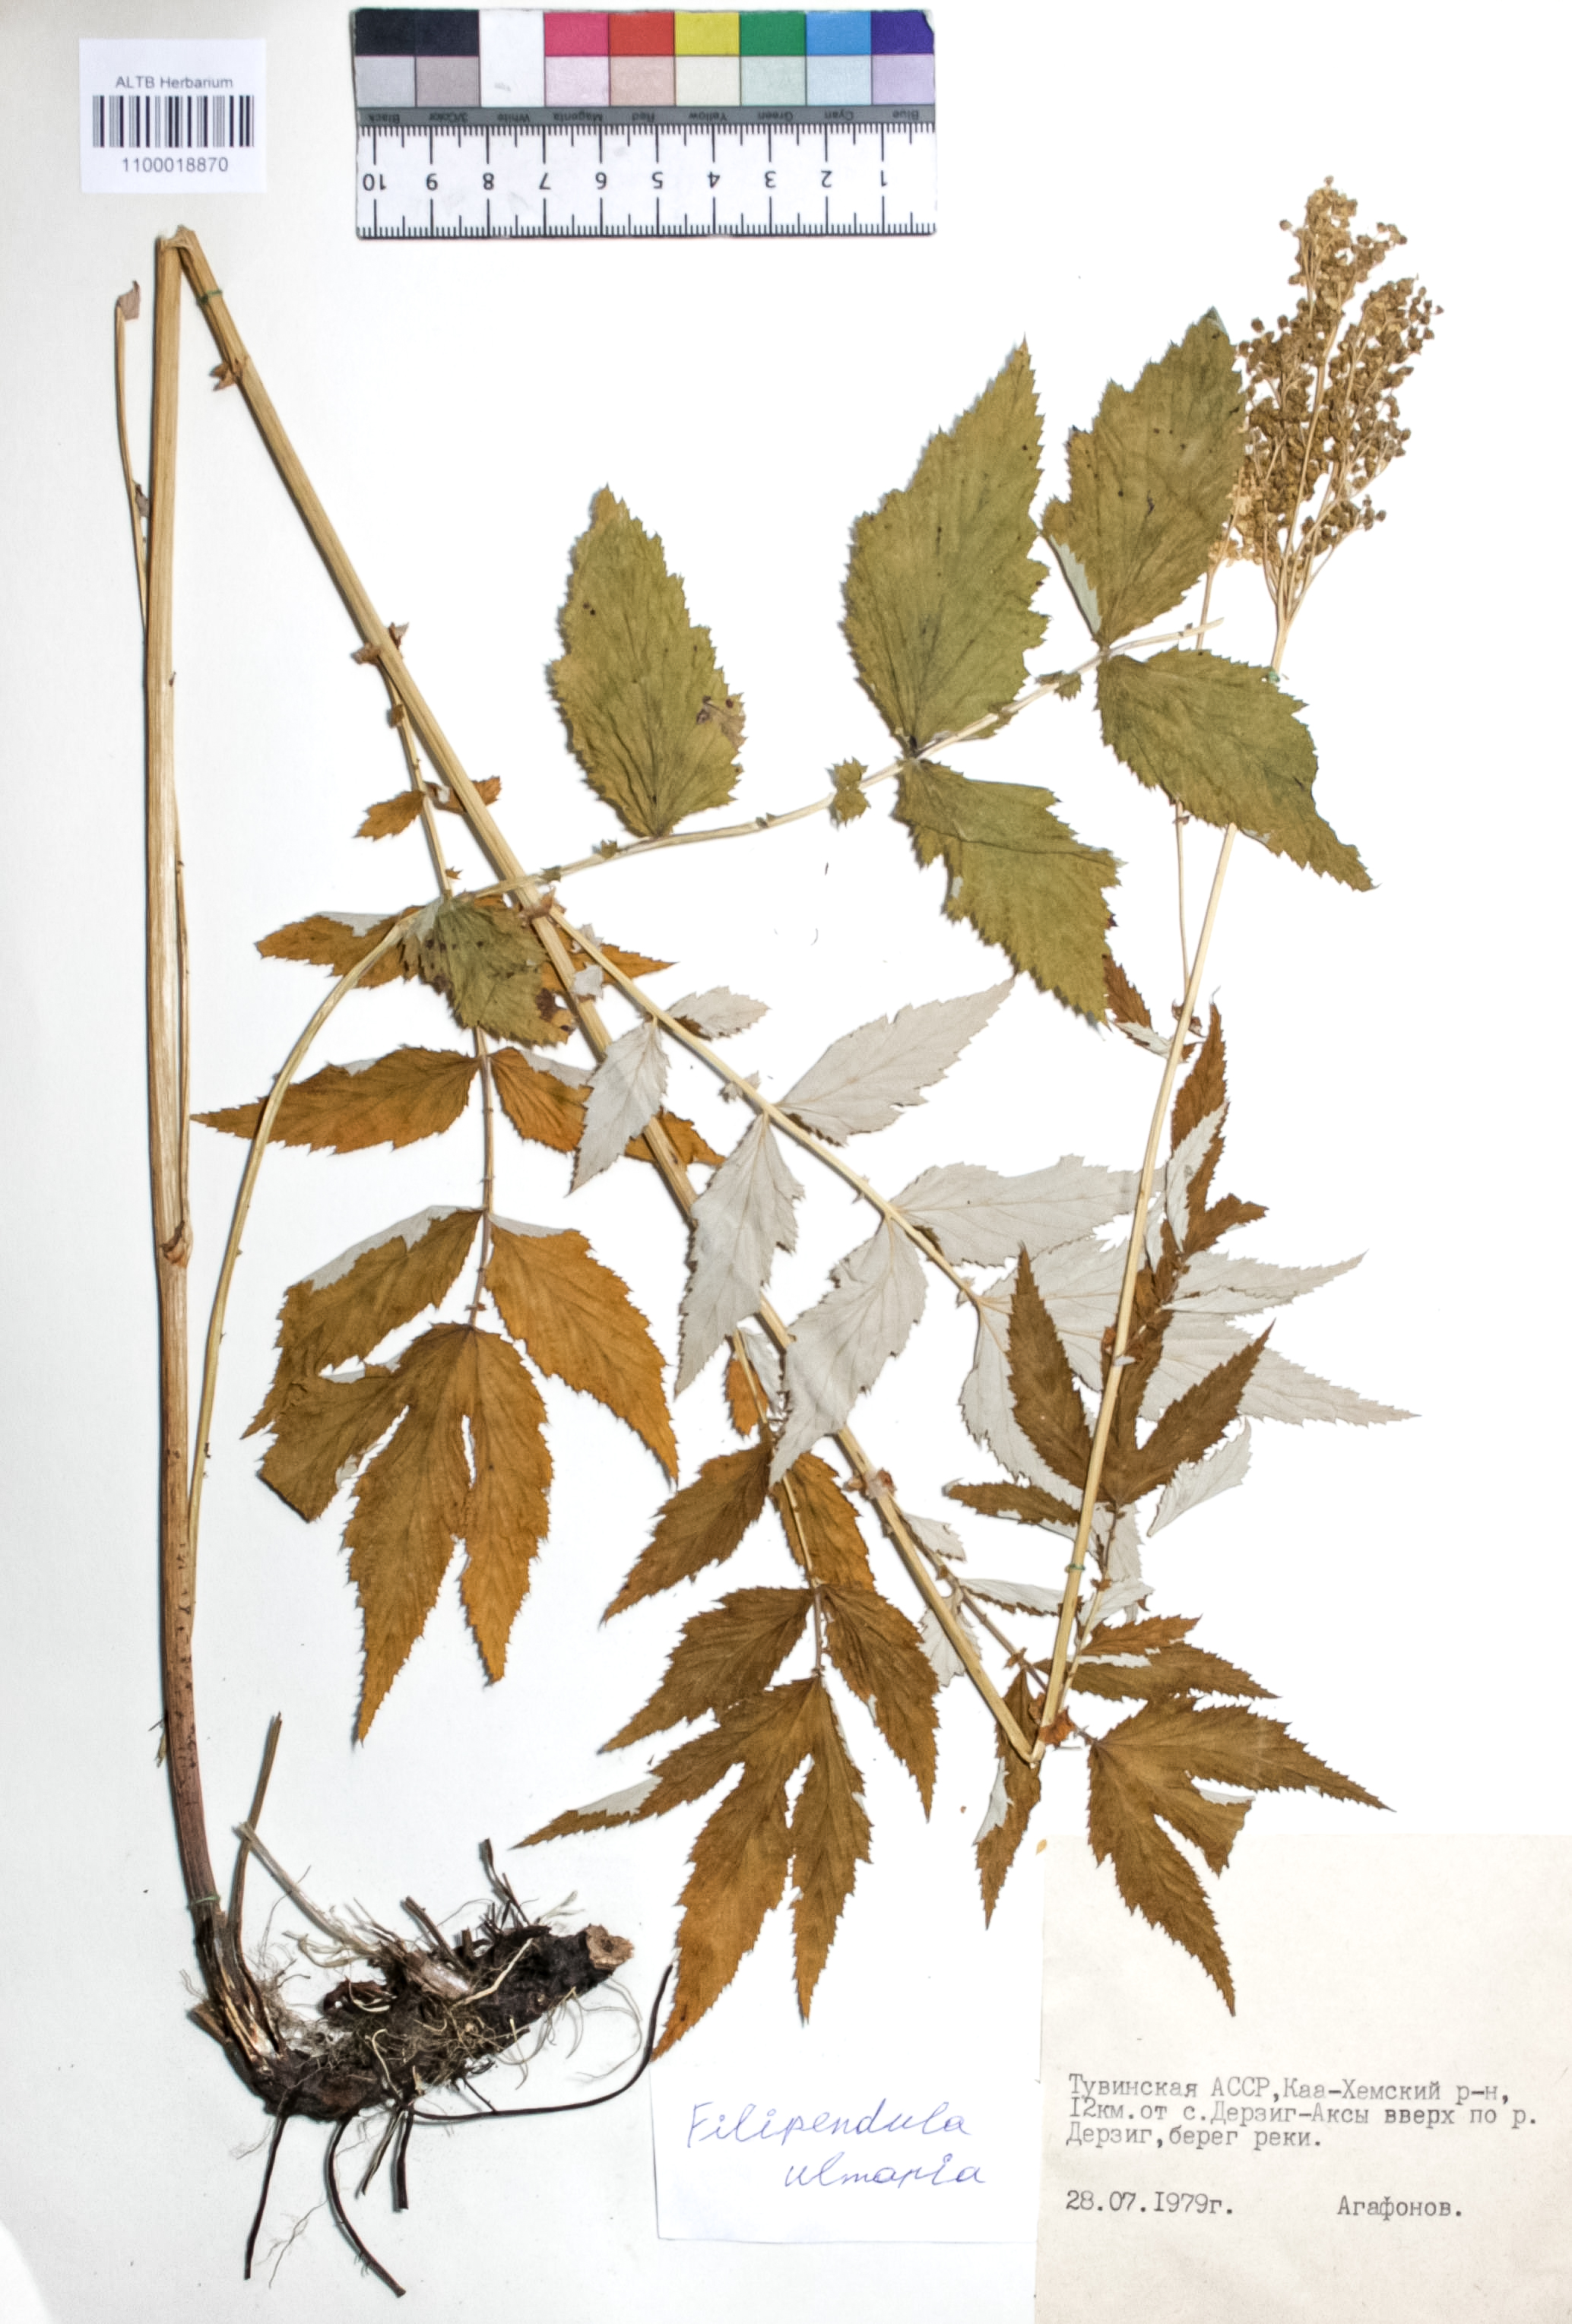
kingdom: Plantae
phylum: Tracheophyta
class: Magnoliopsida
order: Rosales
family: Rosaceae
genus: Filipendula
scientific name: Filipendula ulmaria
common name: Meadowsweet
